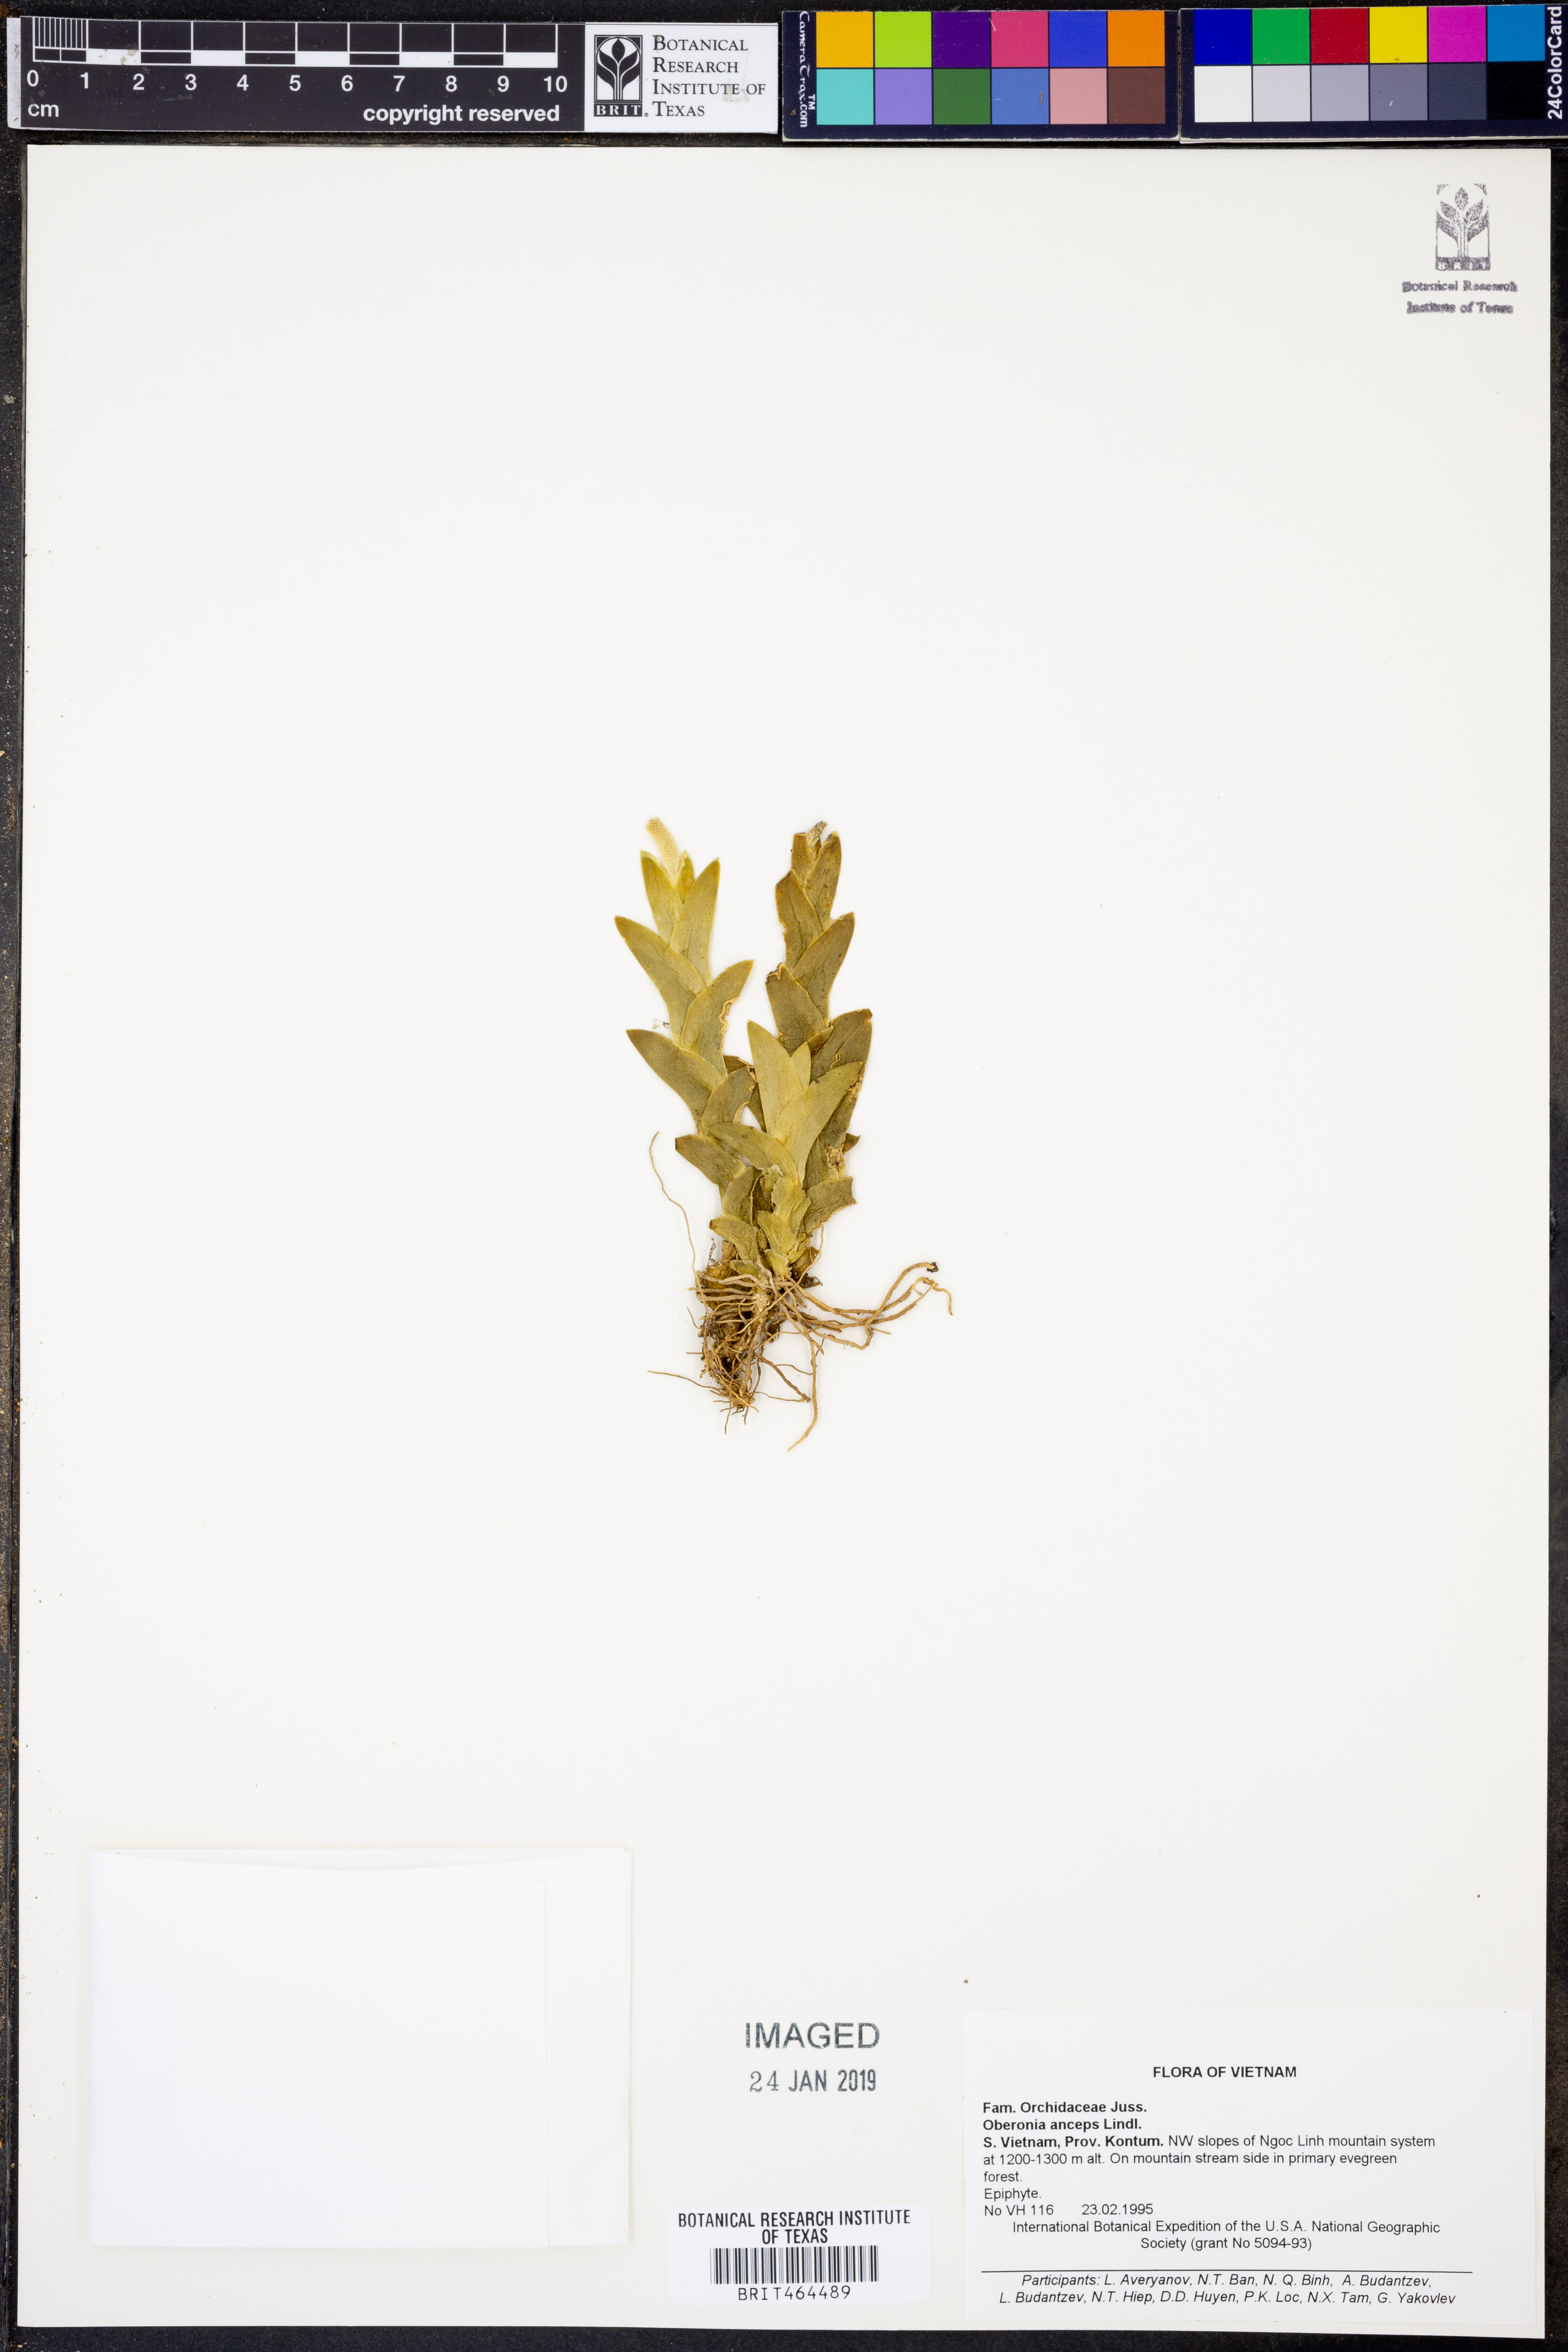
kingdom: Plantae
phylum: Tracheophyta
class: Liliopsida
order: Asparagales
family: Orchidaceae
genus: Oberonia
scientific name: Oberonia lycopodioides
